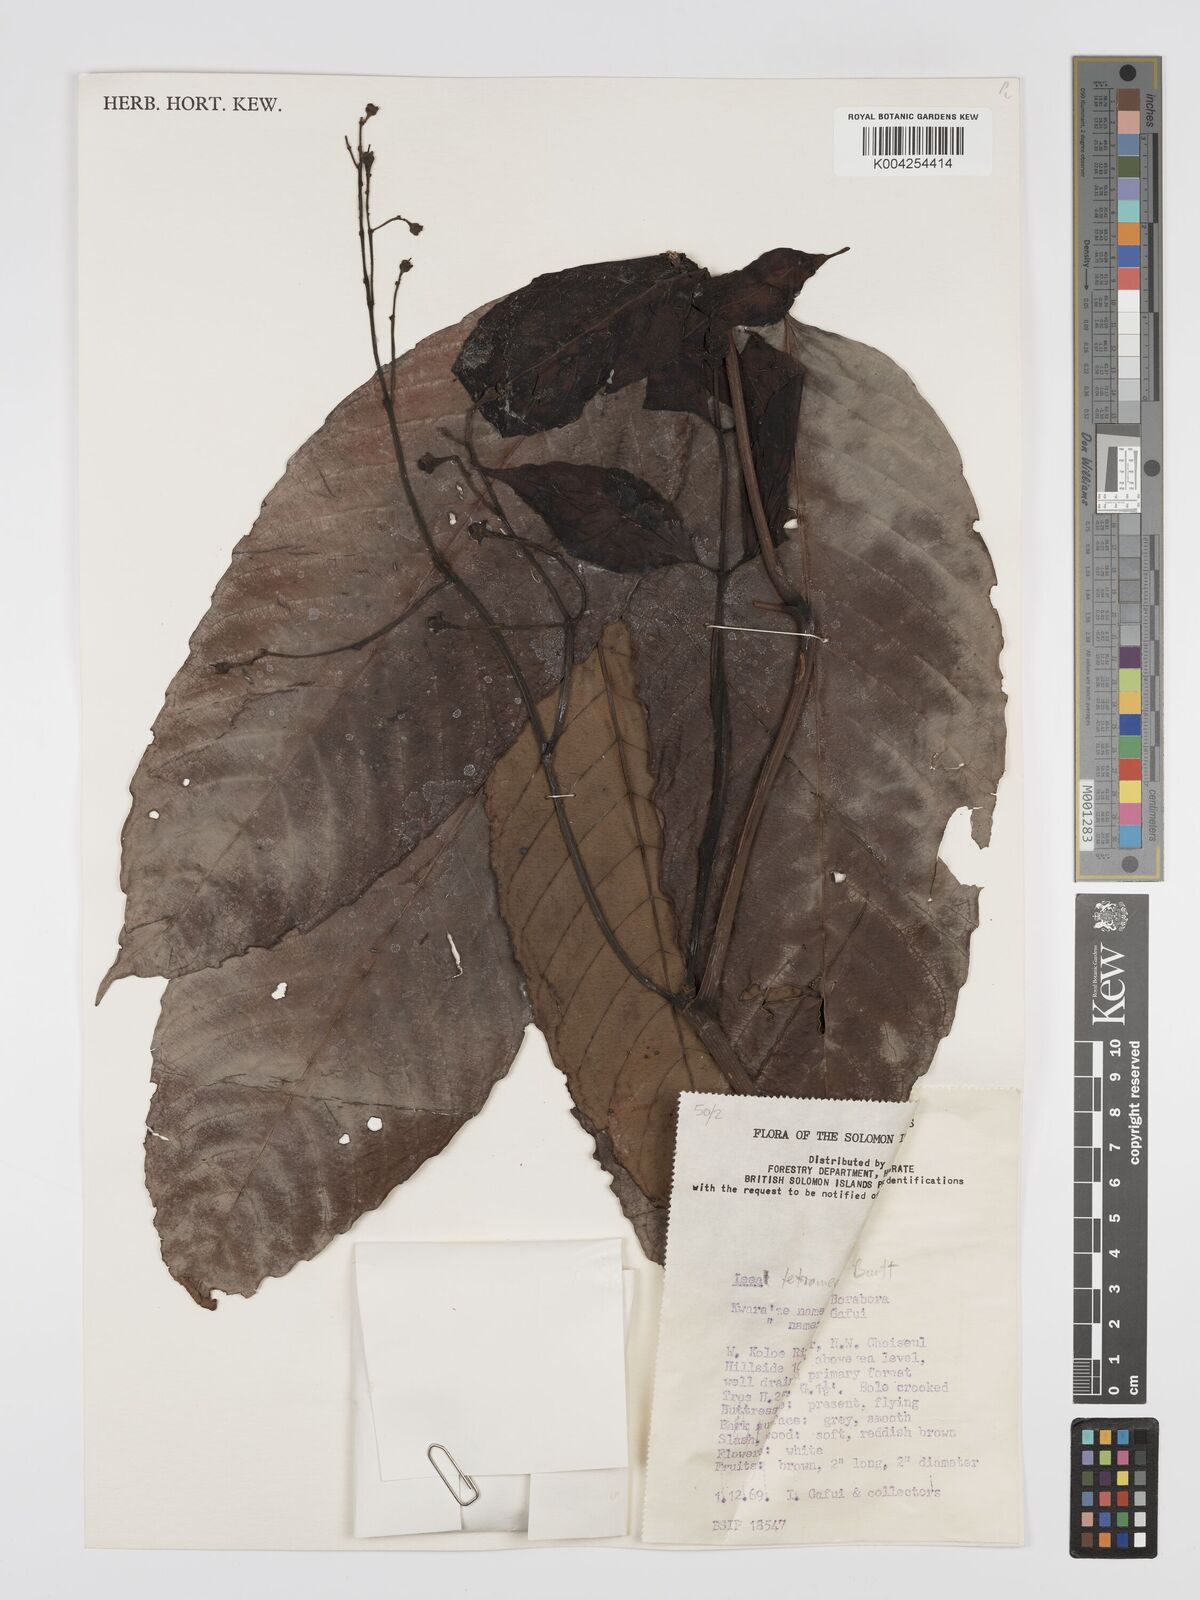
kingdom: Plantae
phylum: Tracheophyta
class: Magnoliopsida
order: Vitales
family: Vitaceae
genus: Leea
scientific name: Leea tetramera
